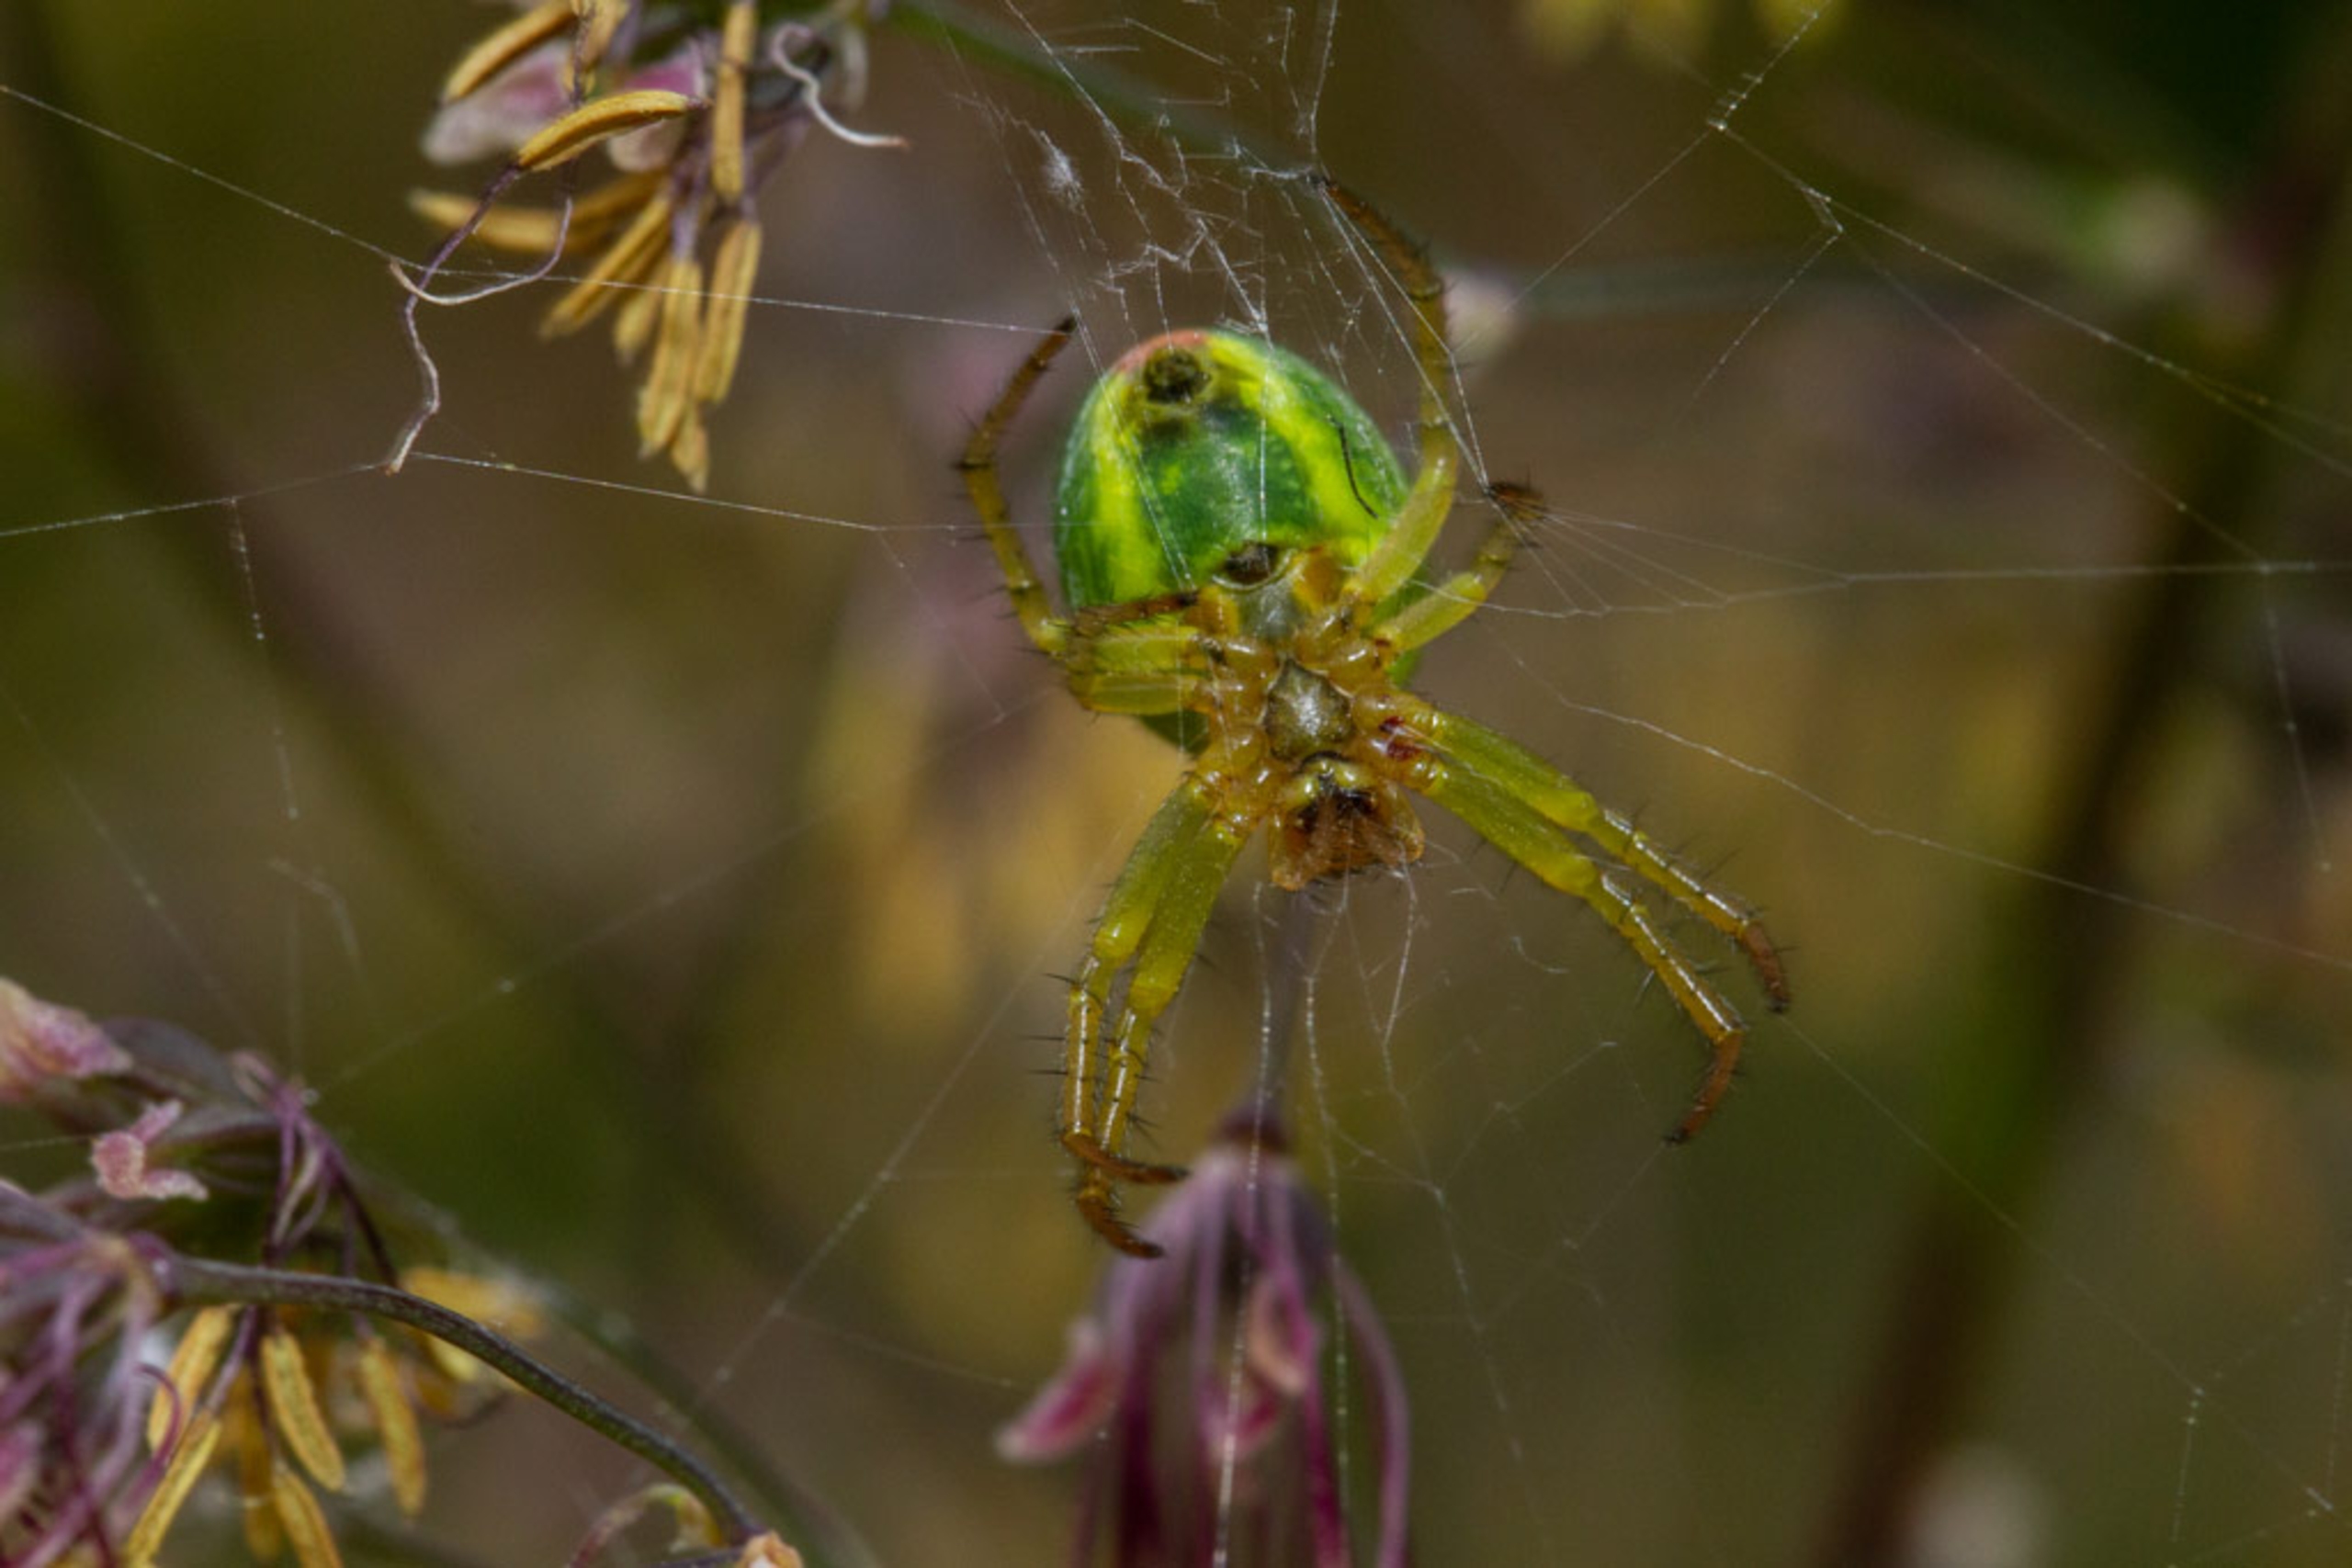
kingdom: Animalia
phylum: Arthropoda
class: Arachnida
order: Araneae
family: Araneidae
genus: Araniella
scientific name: Araniella
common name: Agurkeedderkopslægten
